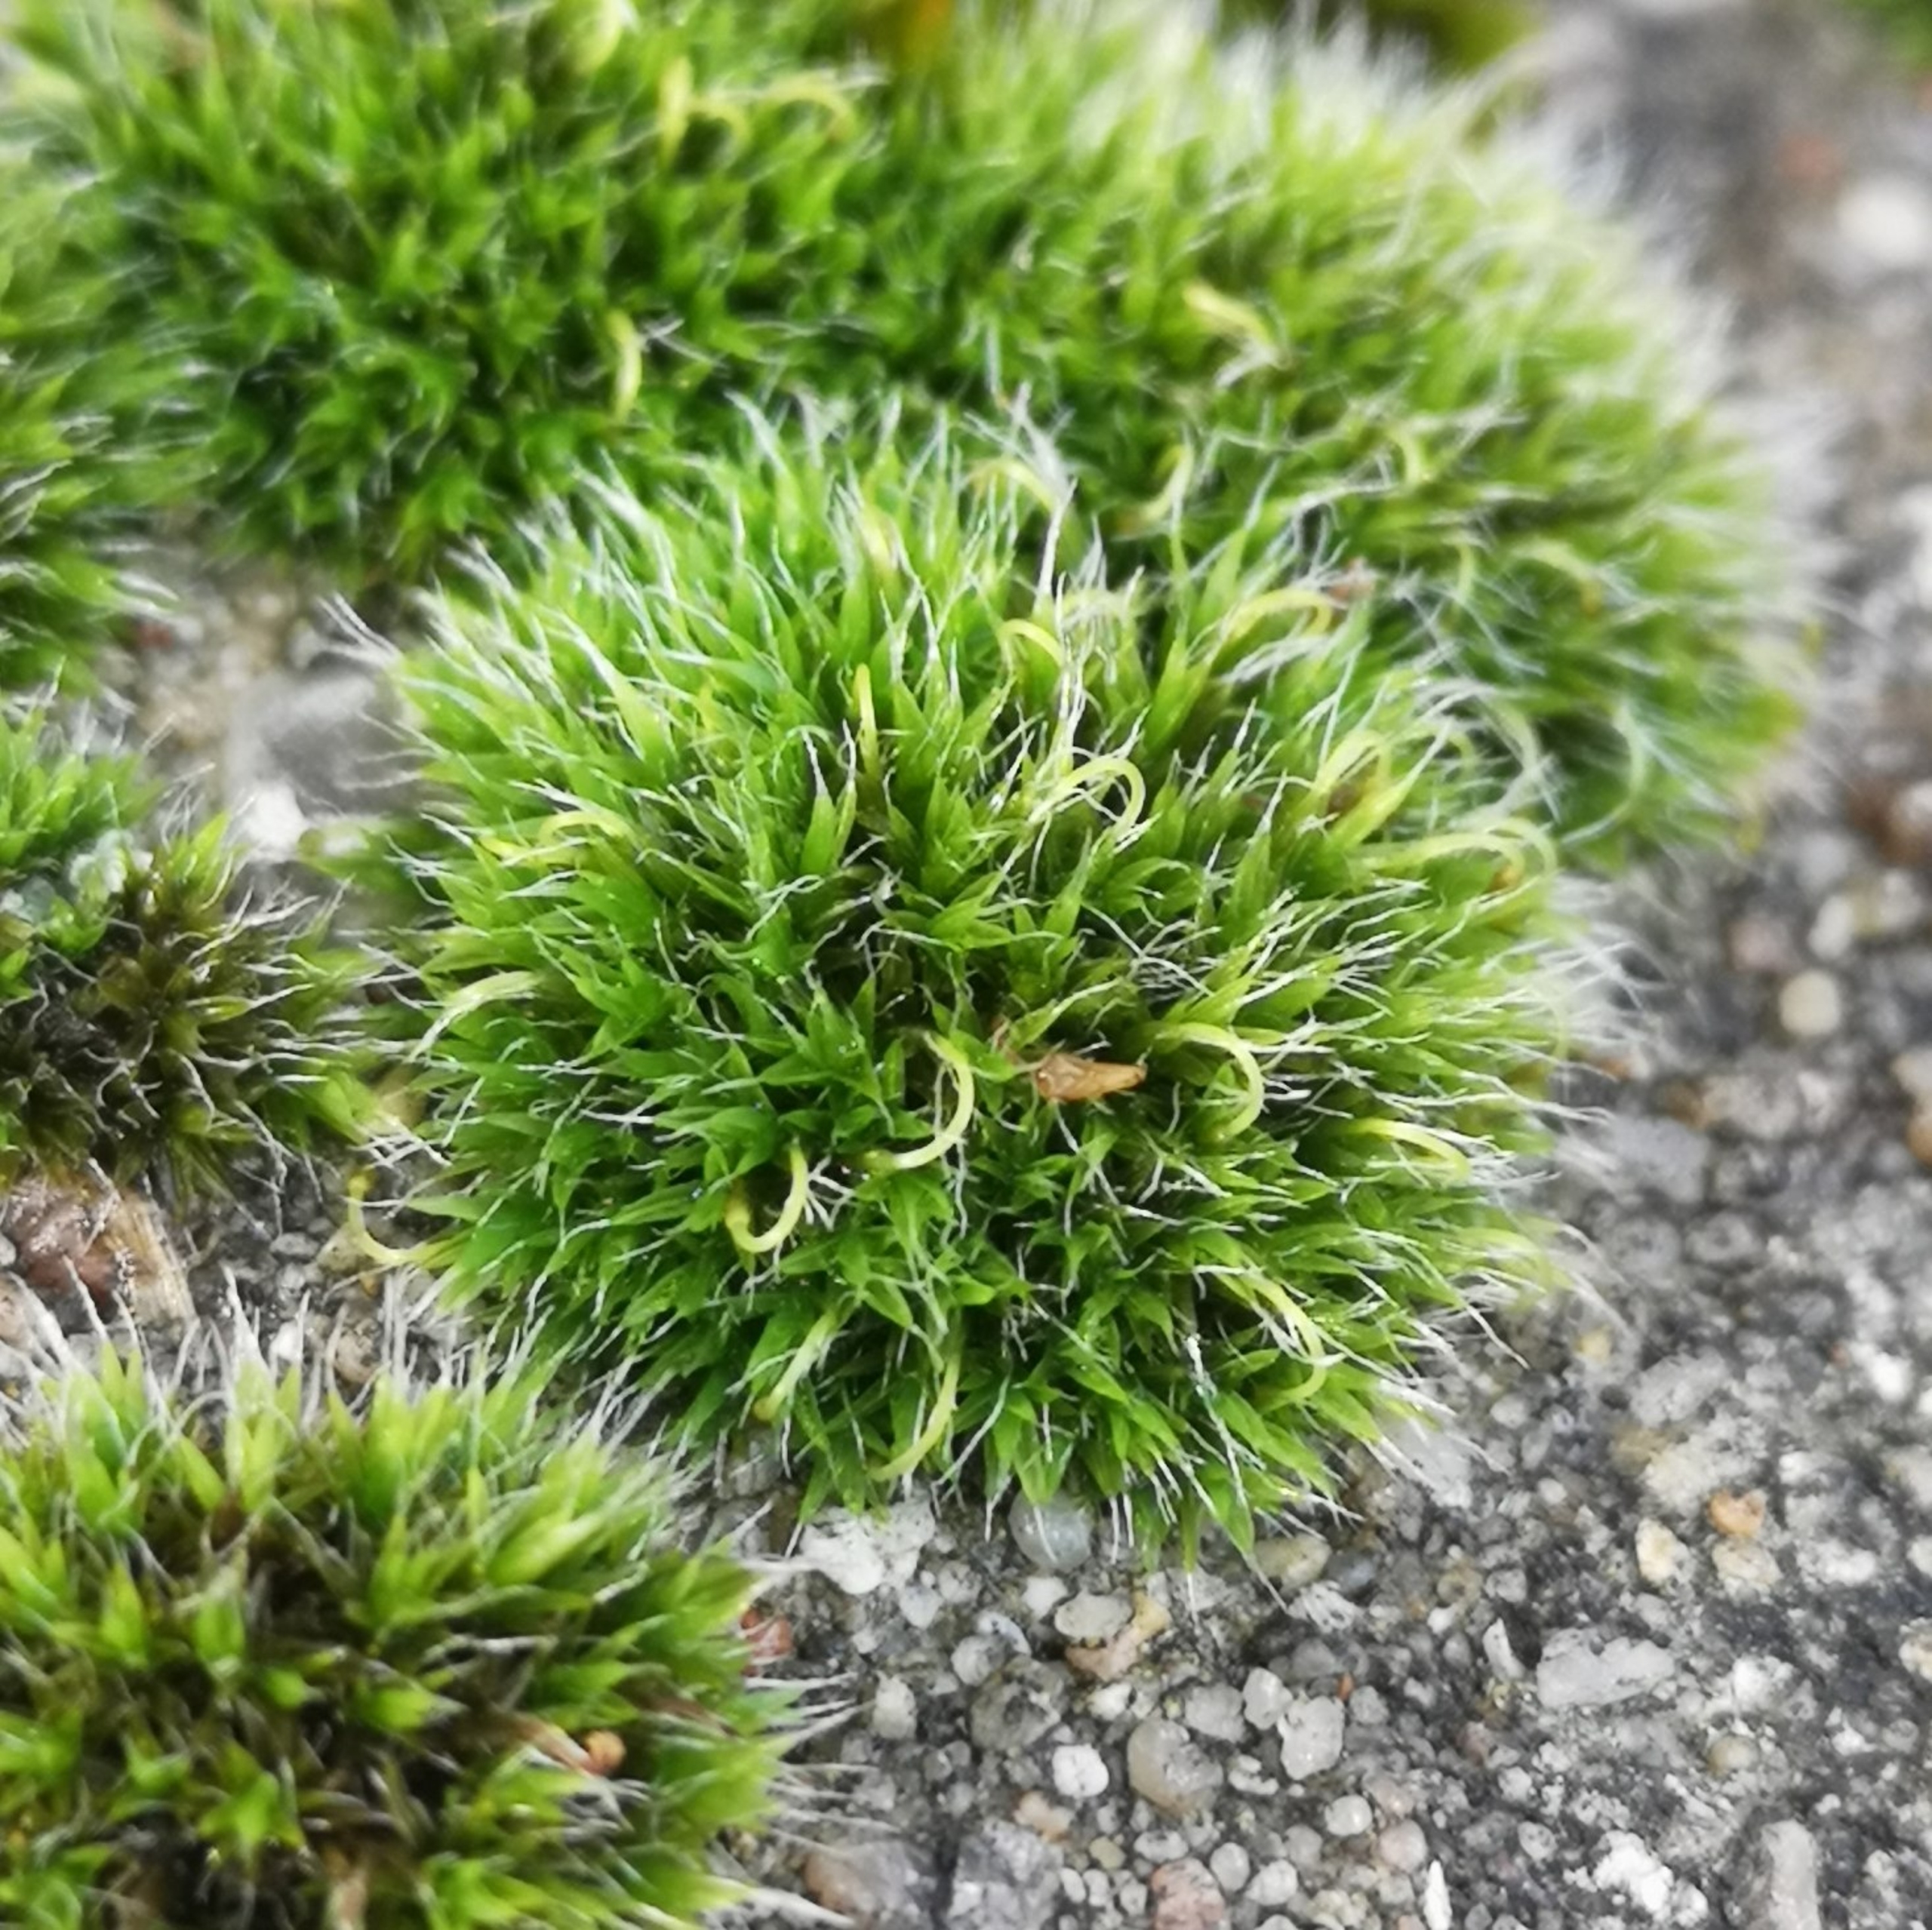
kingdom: Plantae
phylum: Bryophyta
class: Bryopsida
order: Grimmiales
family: Grimmiaceae
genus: Grimmia
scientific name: Grimmia pulvinata
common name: Pude-gråmos
